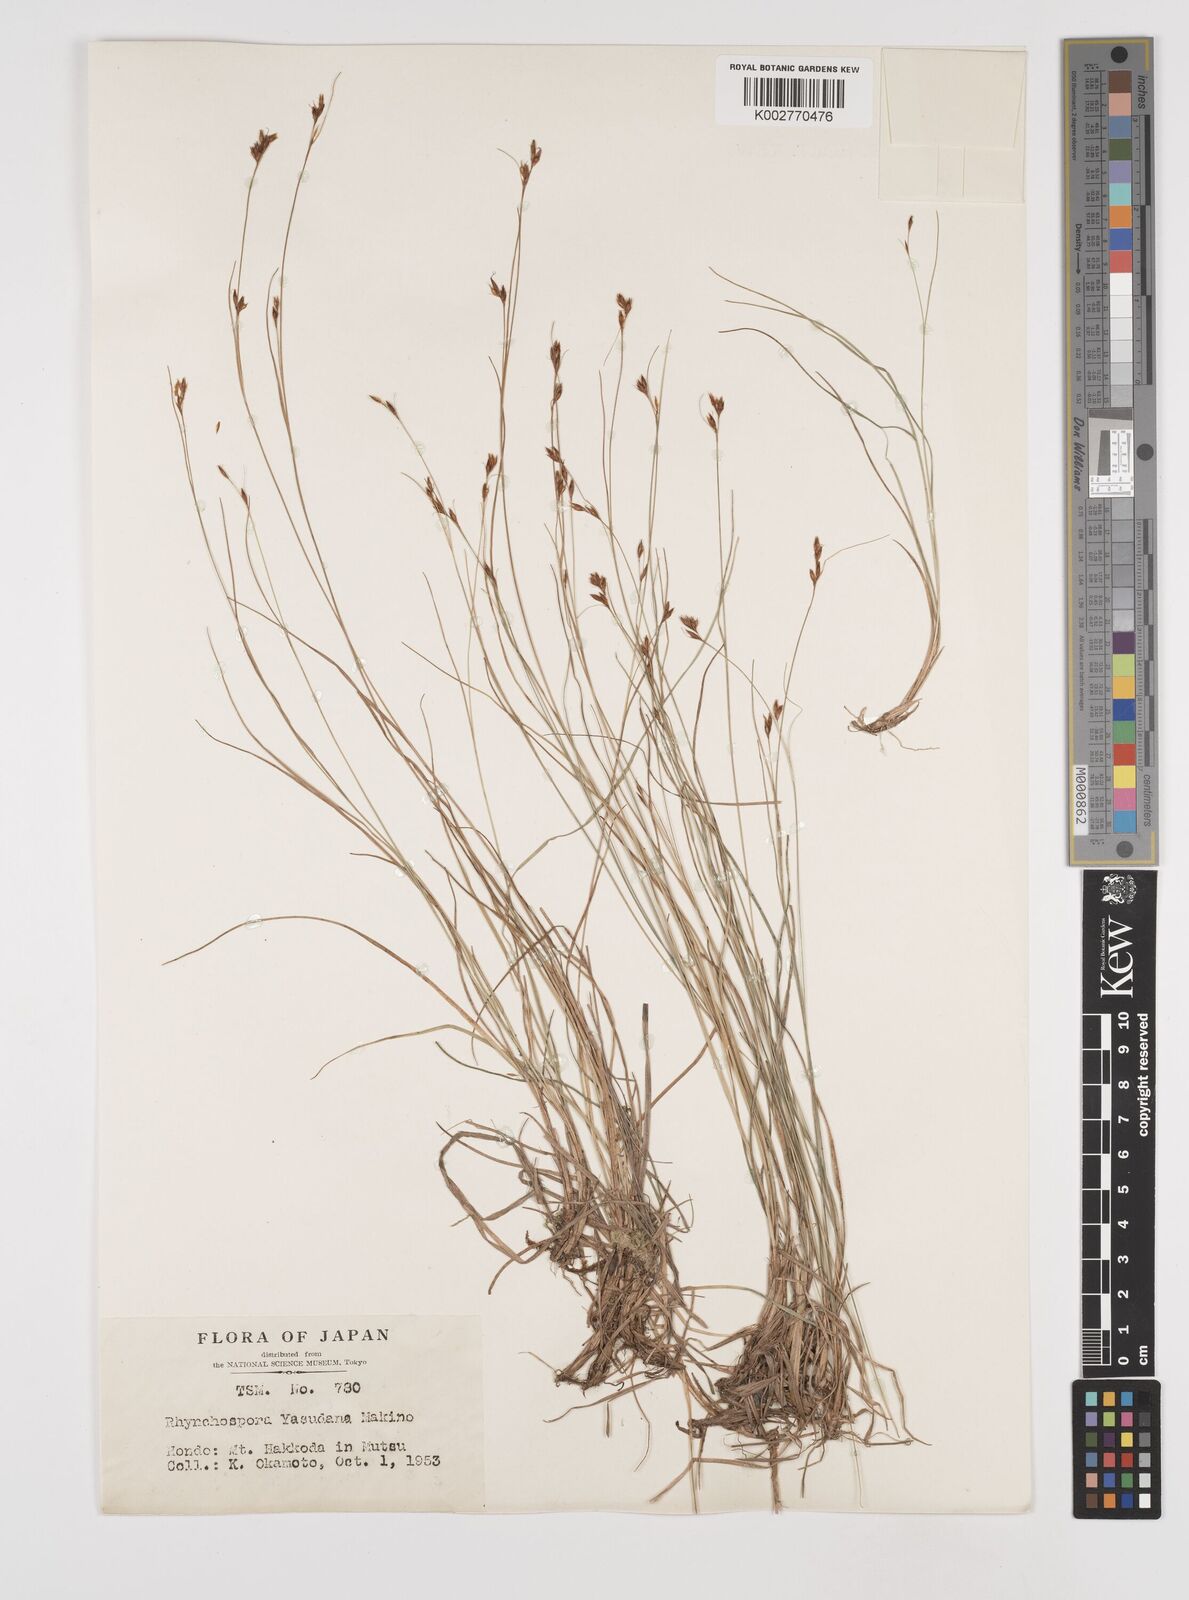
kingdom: Plantae
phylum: Tracheophyta
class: Liliopsida
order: Poales
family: Cyperaceae
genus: Rhynchospora
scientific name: Rhynchospora chinensis
